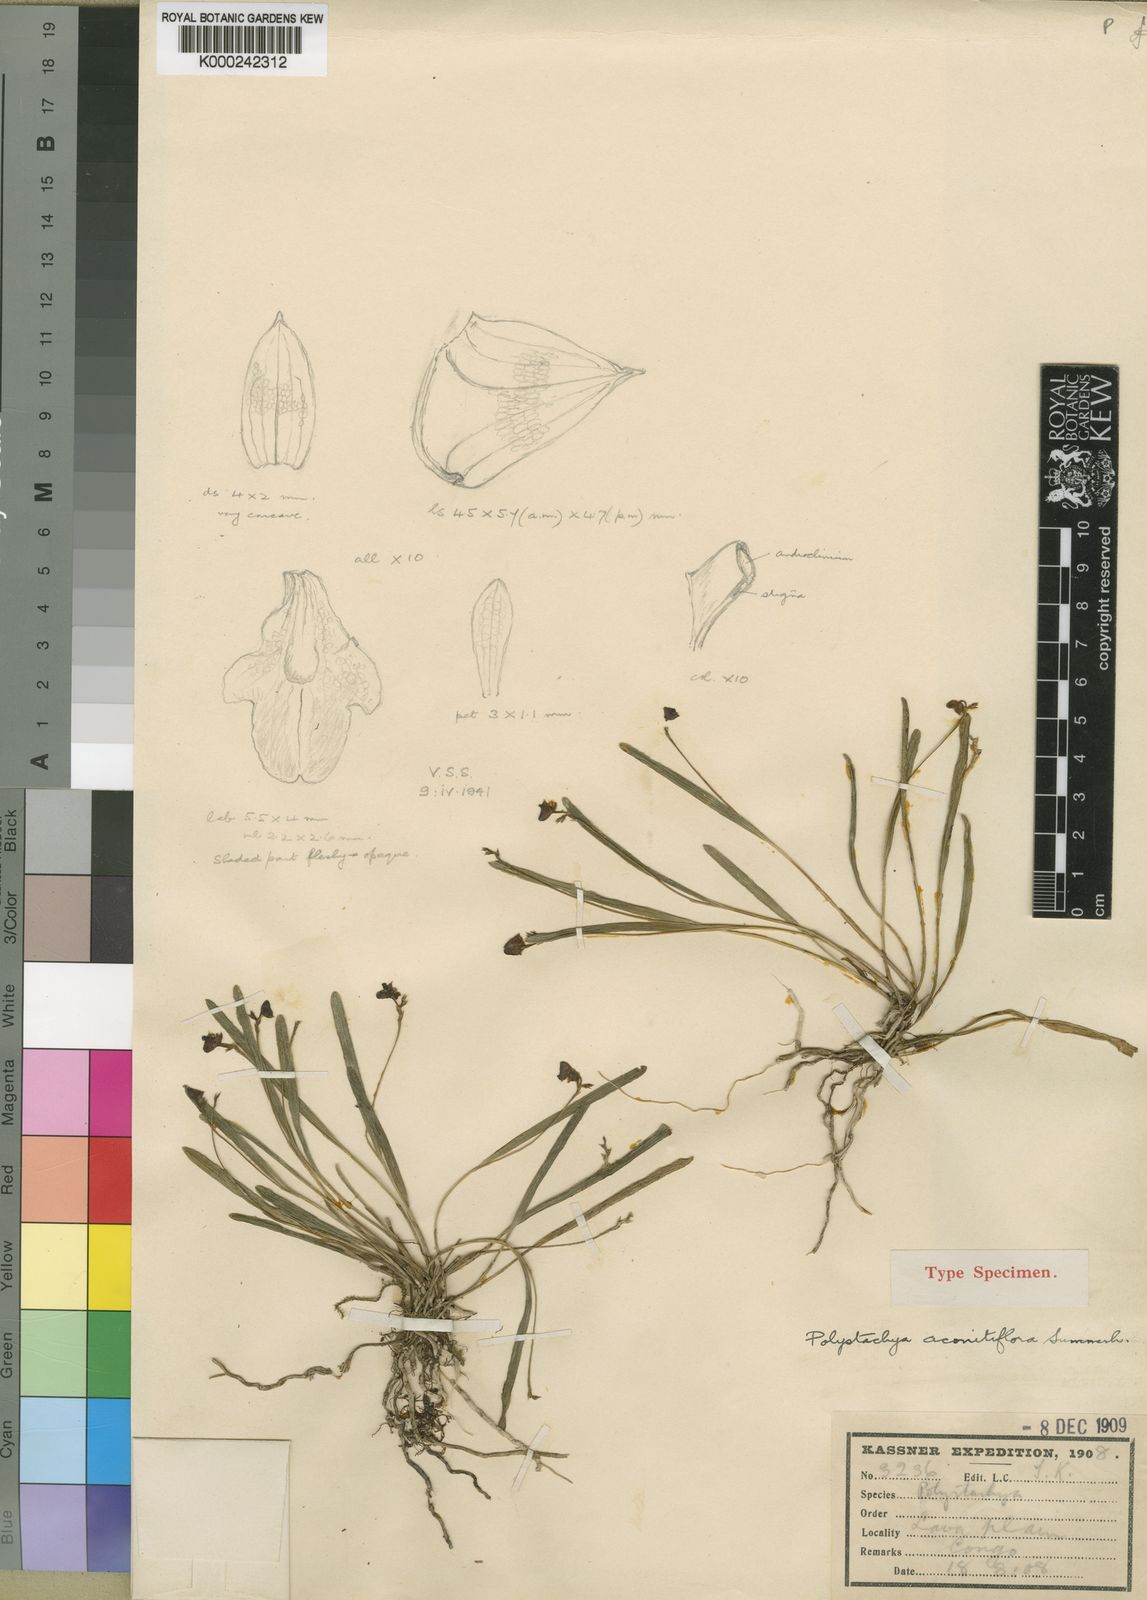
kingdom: Plantae
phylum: Tracheophyta
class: Liliopsida
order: Asparagales
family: Orchidaceae
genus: Polystachya
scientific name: Polystachya aconitiflora
